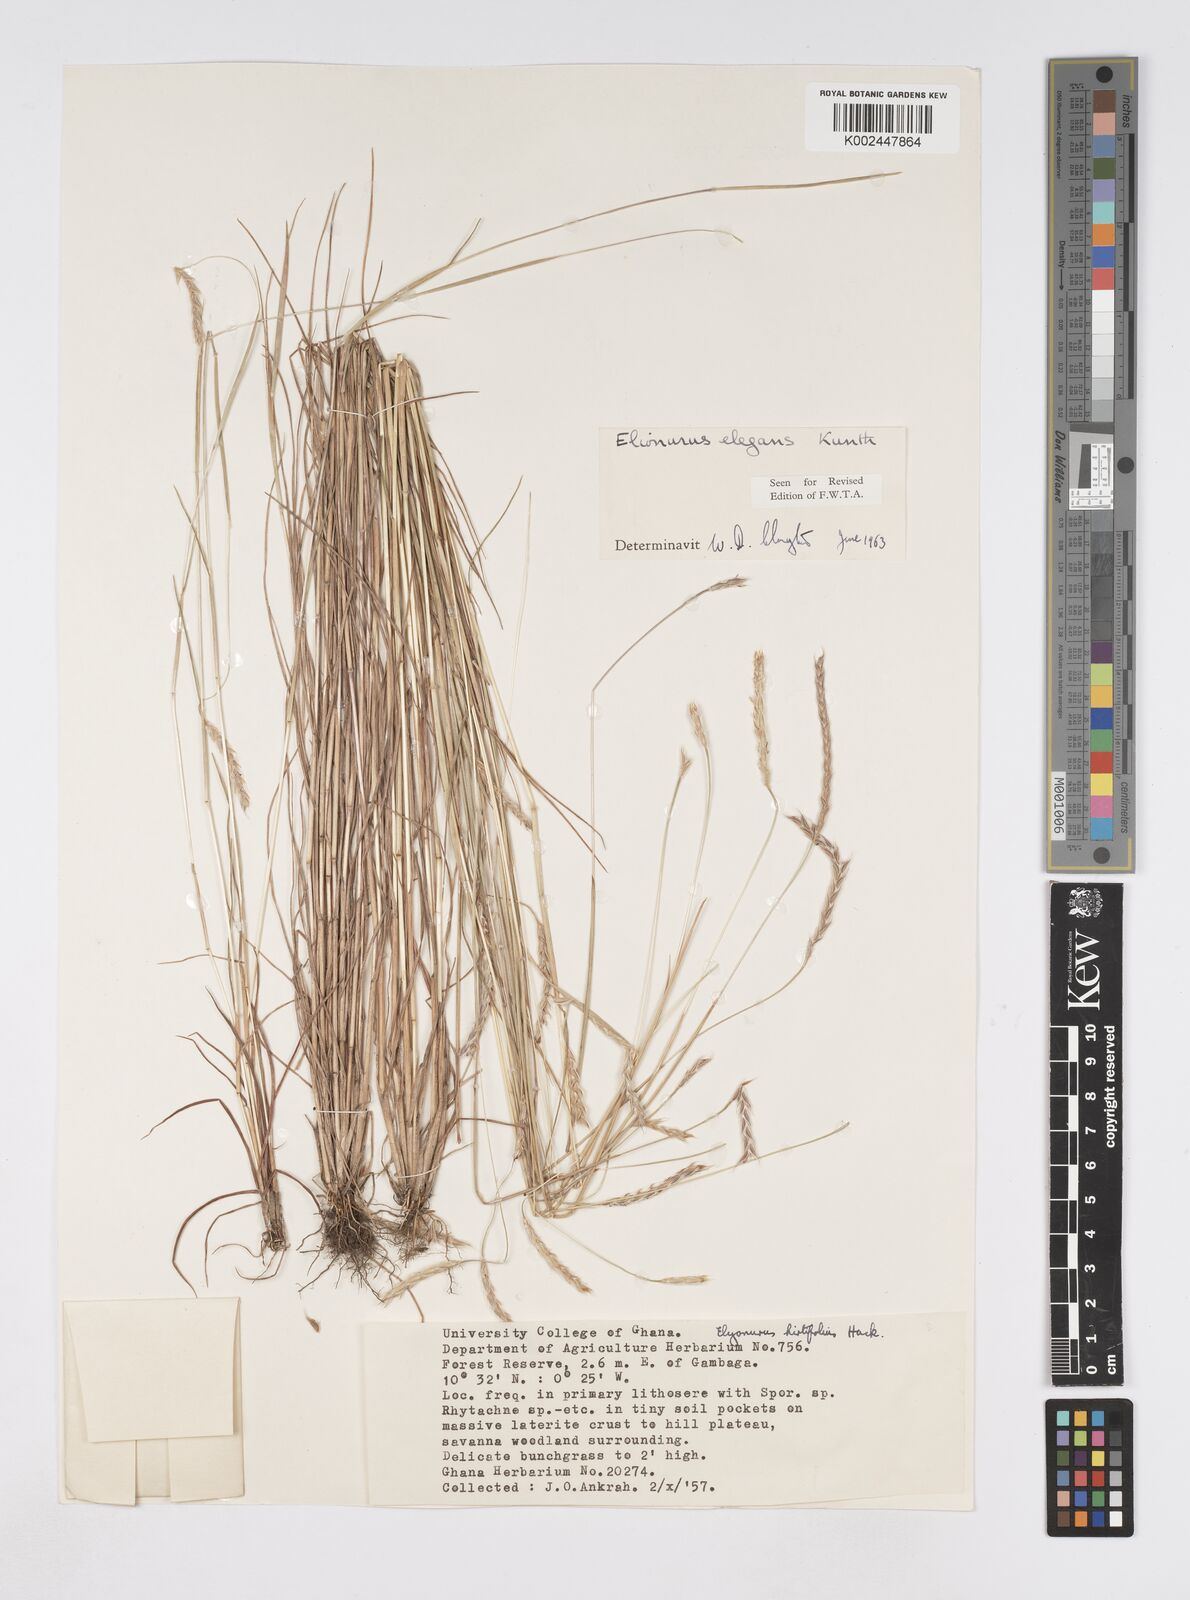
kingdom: Plantae
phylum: Tracheophyta
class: Liliopsida
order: Poales
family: Poaceae
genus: Elionurus
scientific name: Elionurus elegans
